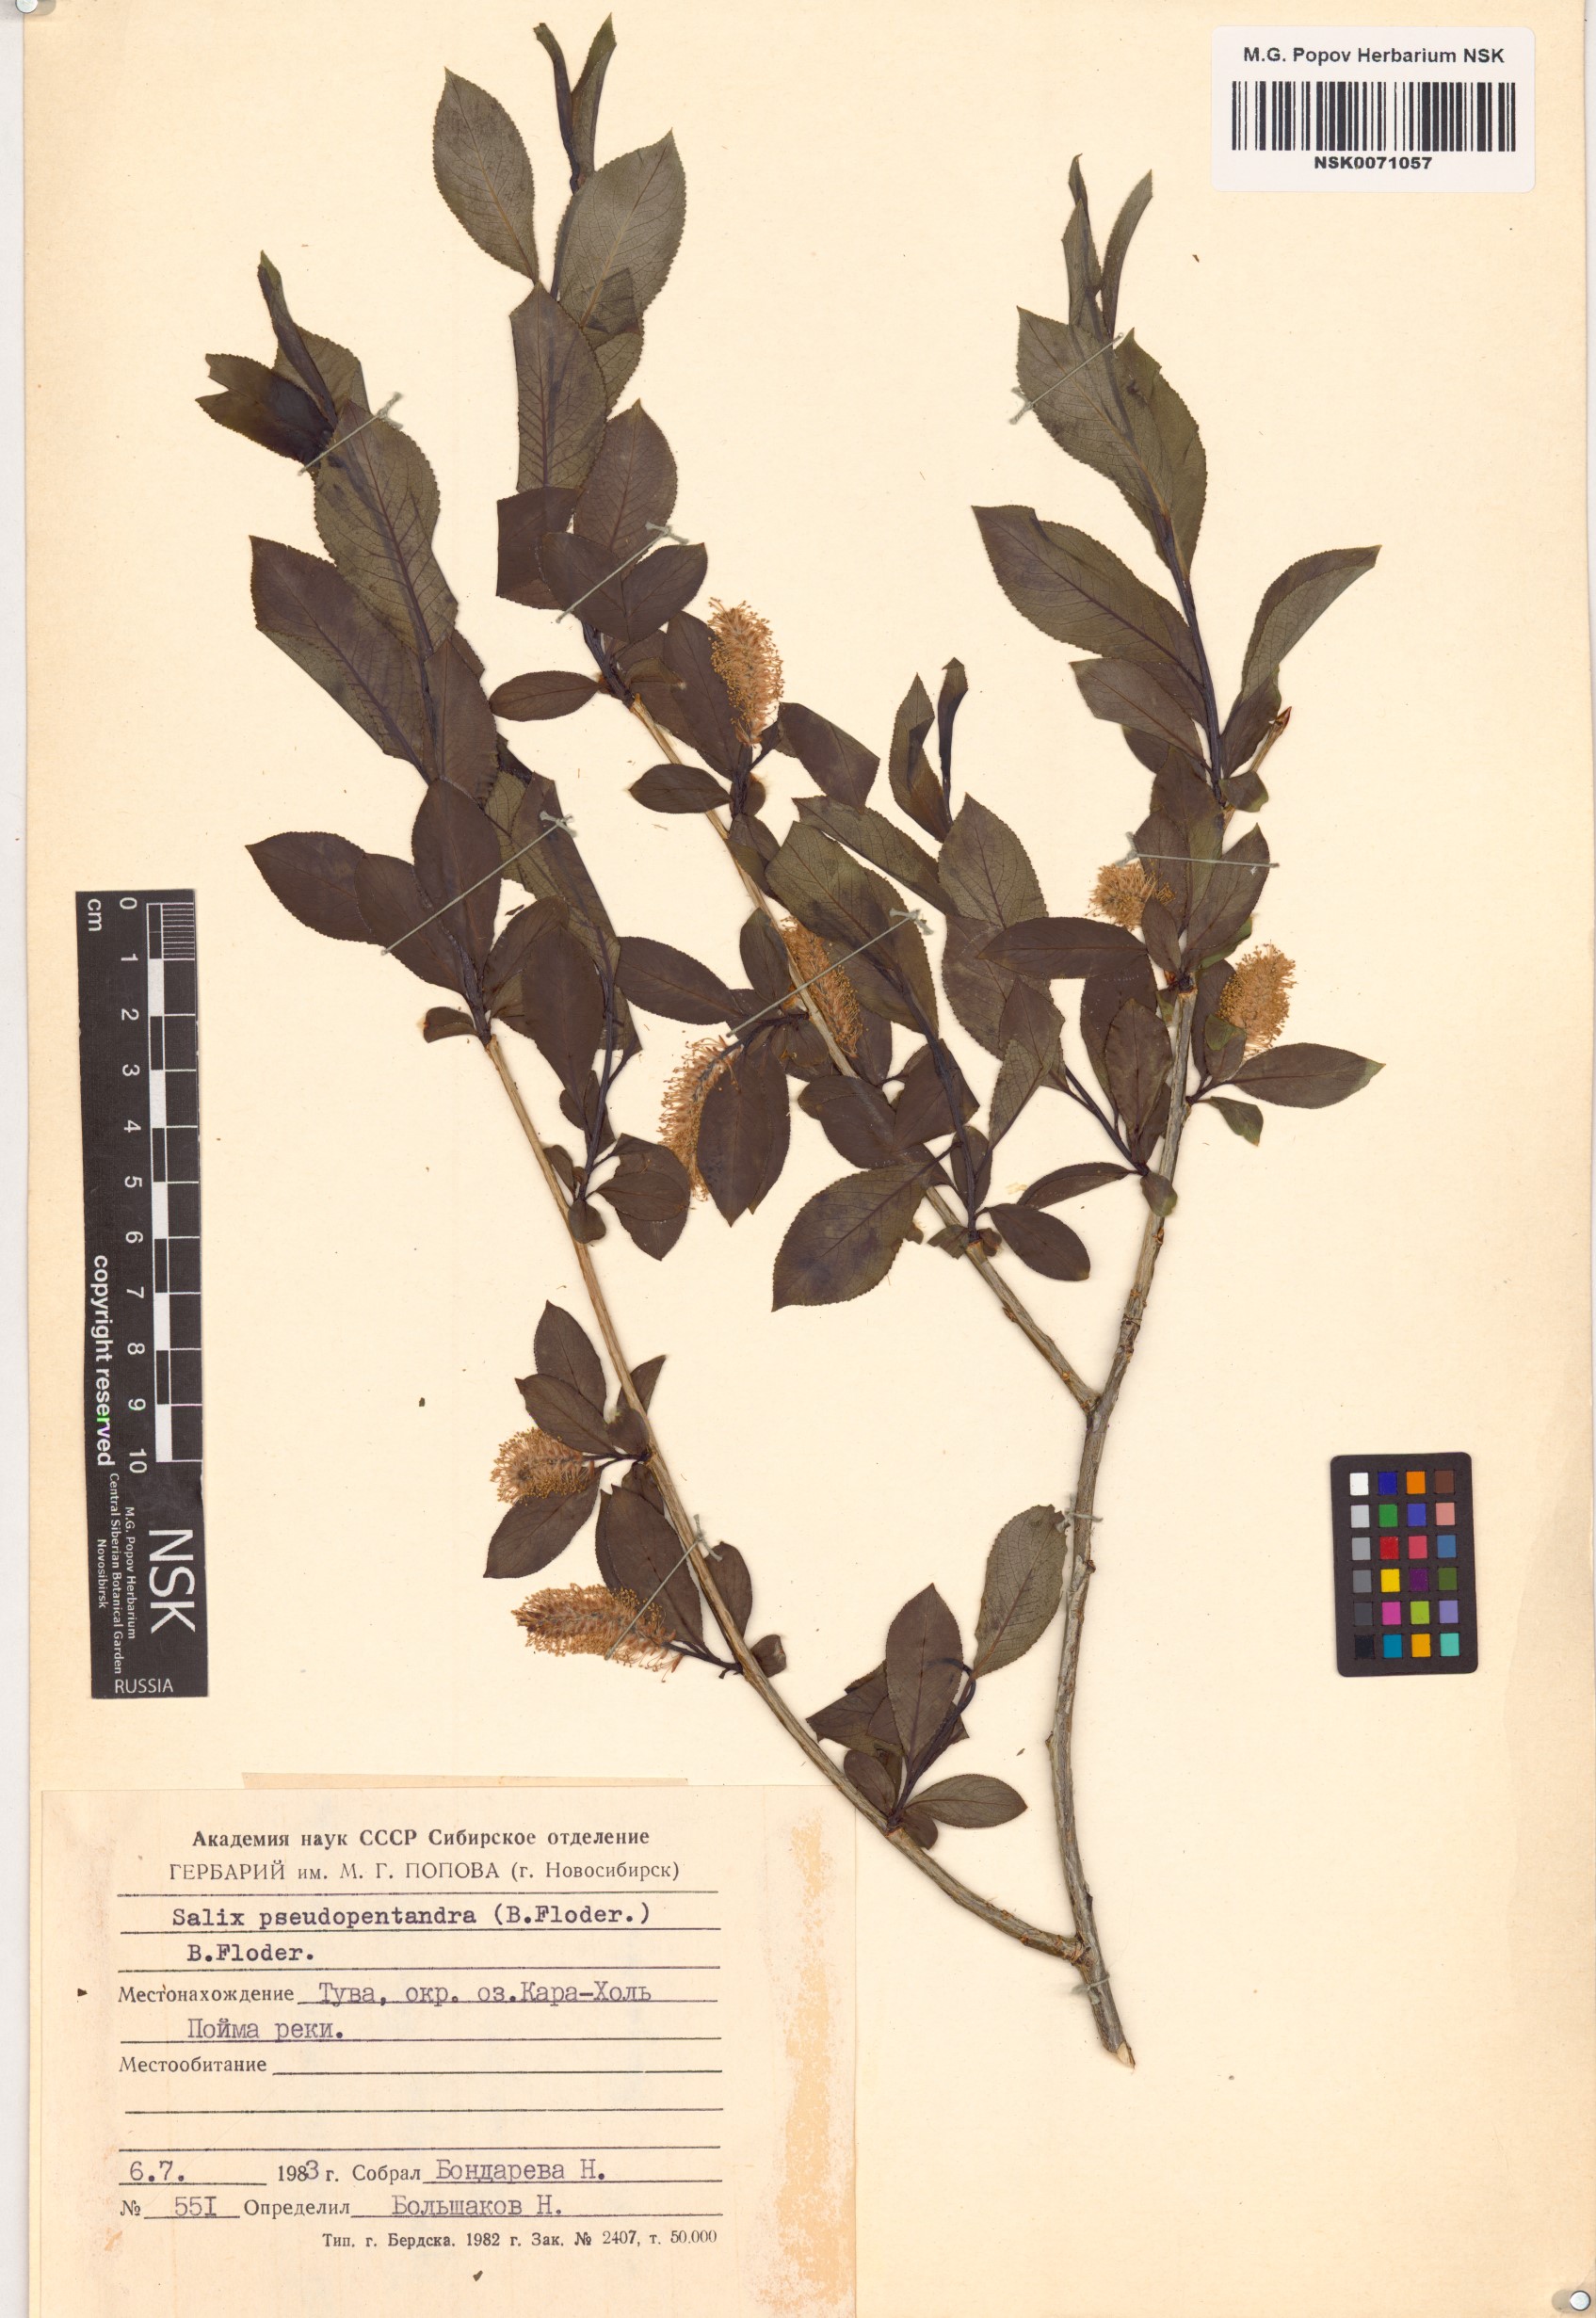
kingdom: Plantae
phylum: Tracheophyta
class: Magnoliopsida
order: Malpighiales
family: Salicaceae
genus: Salix
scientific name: Salix pseudopentandra
